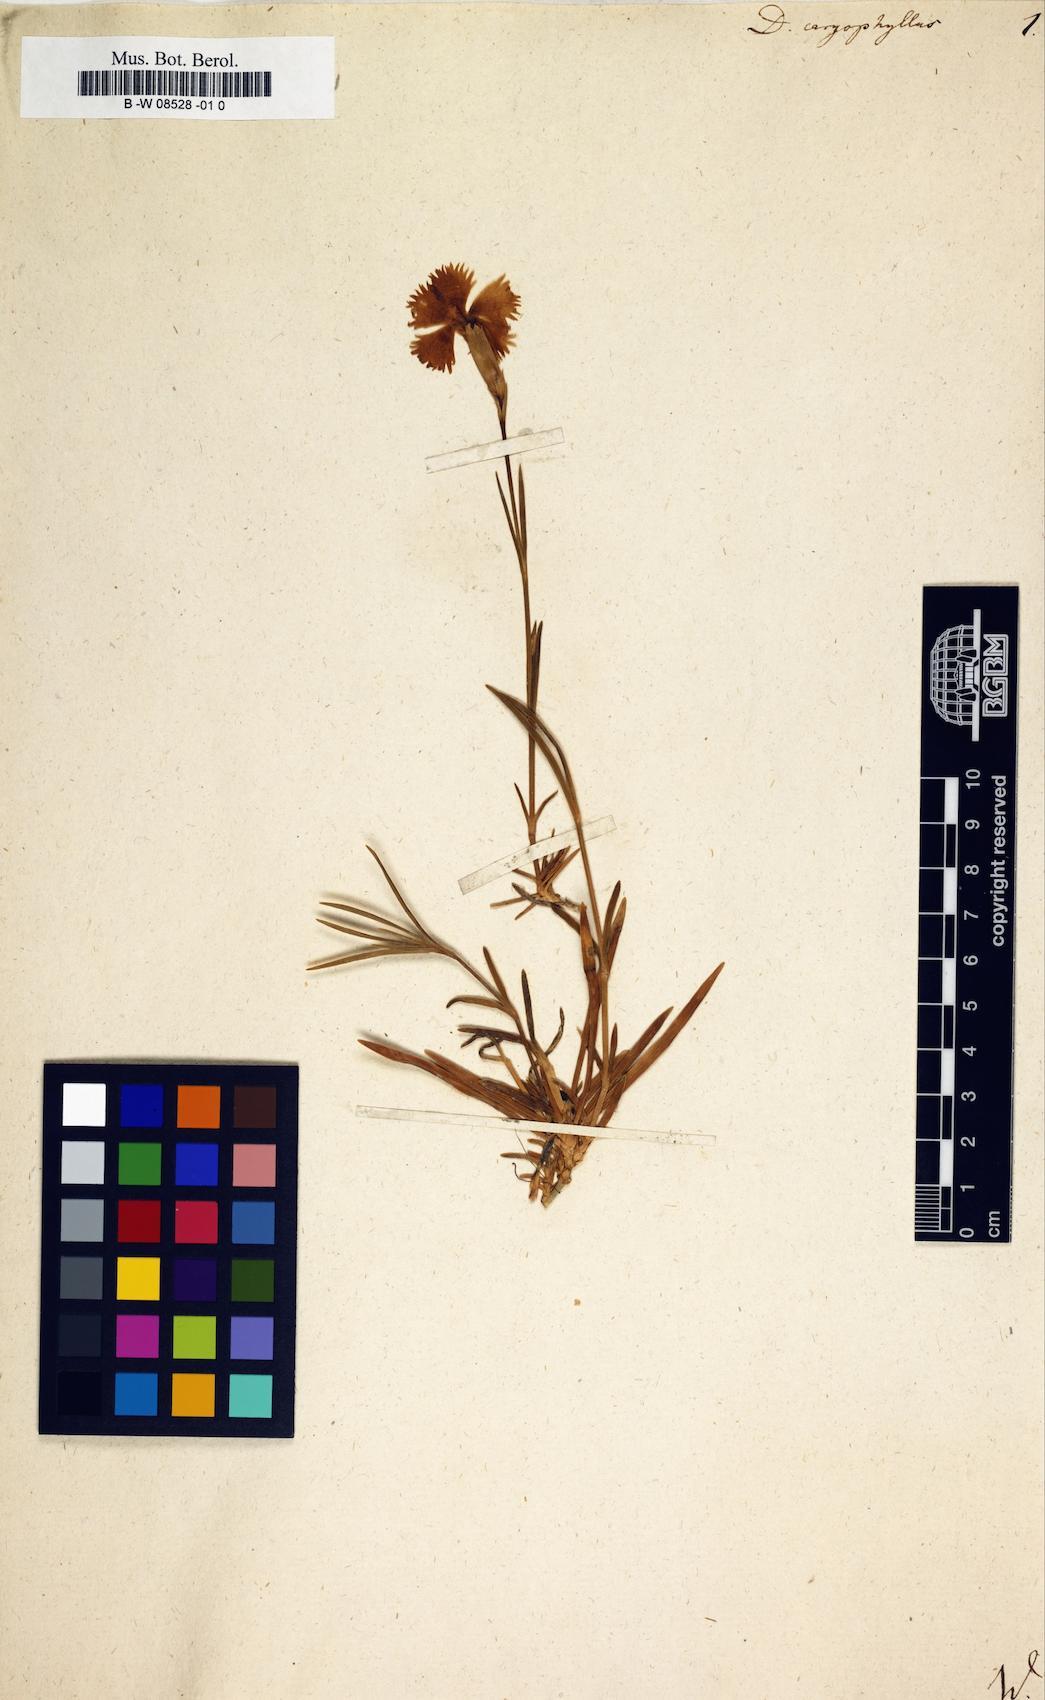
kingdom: Plantae
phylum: Tracheophyta
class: Magnoliopsida
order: Caryophyllales
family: Caryophyllaceae
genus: Dianthus
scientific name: Dianthus caryophyllus
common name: Clove pink
